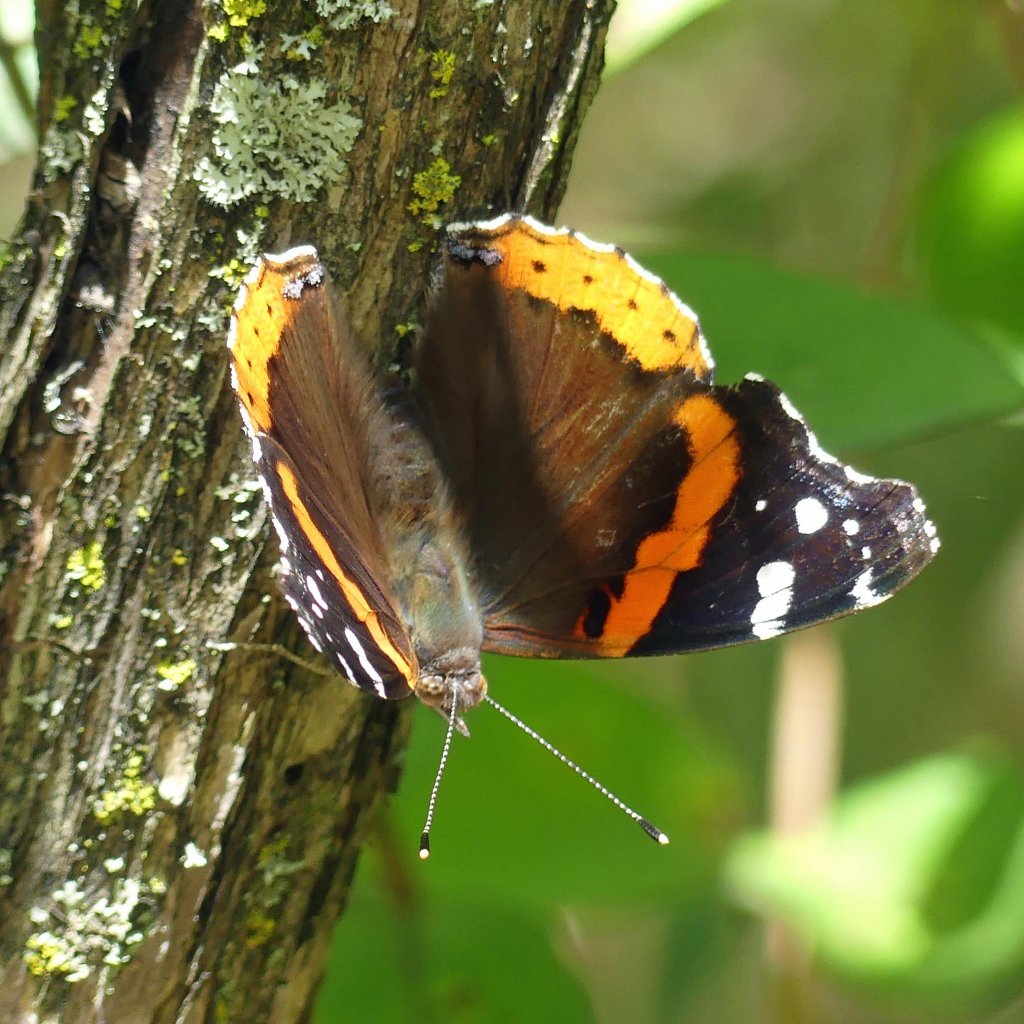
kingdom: Animalia
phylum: Arthropoda
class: Insecta
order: Lepidoptera
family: Nymphalidae
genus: Vanessa
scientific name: Vanessa atalanta
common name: Red Admiral
